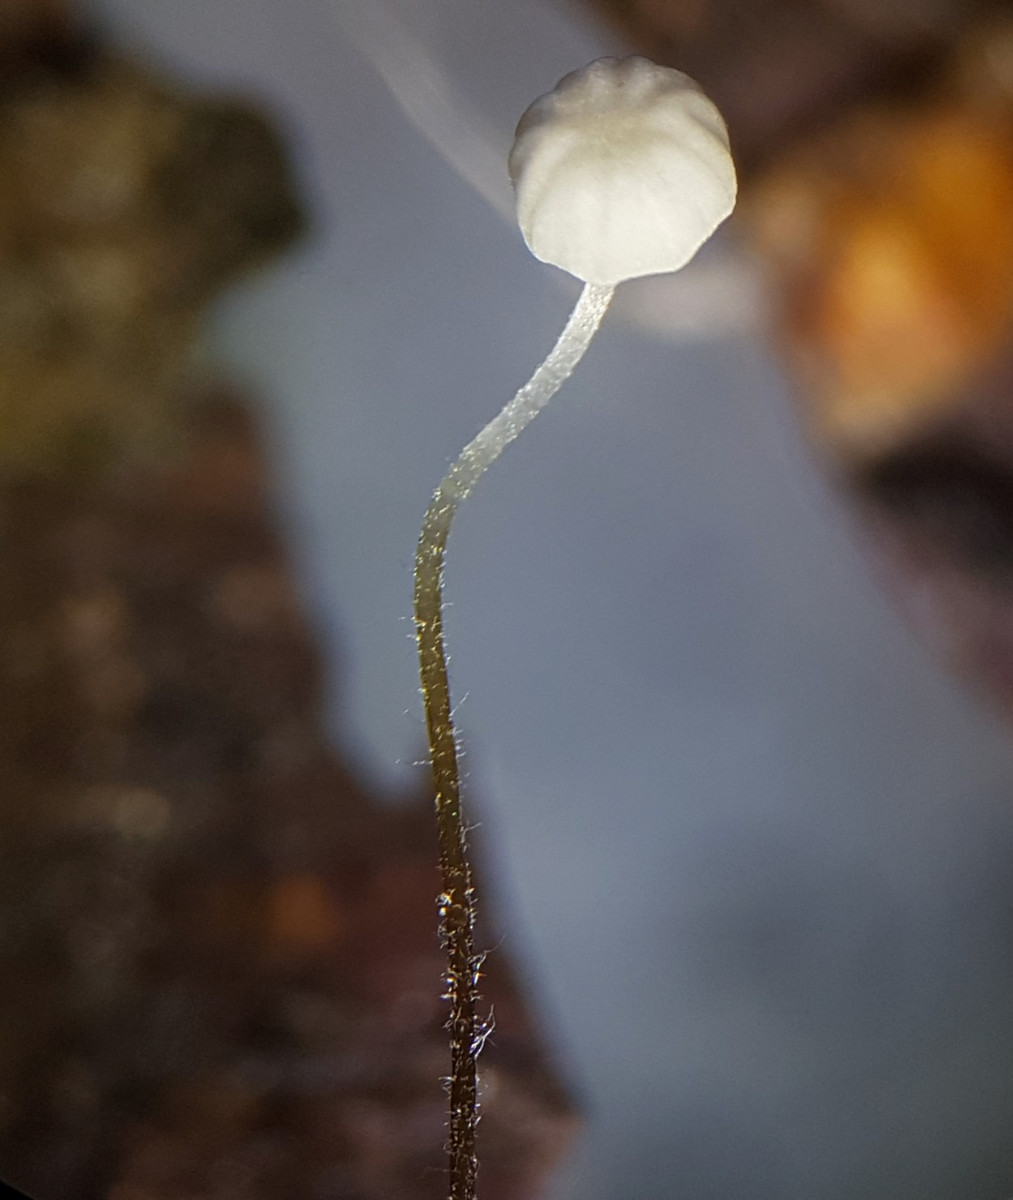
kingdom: Fungi
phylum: Basidiomycota
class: Agaricomycetes
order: Agaricales
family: Physalacriaceae
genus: Rhizomarasmius
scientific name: Rhizomarasmius setosus
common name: bøgeblads-bruskhat
